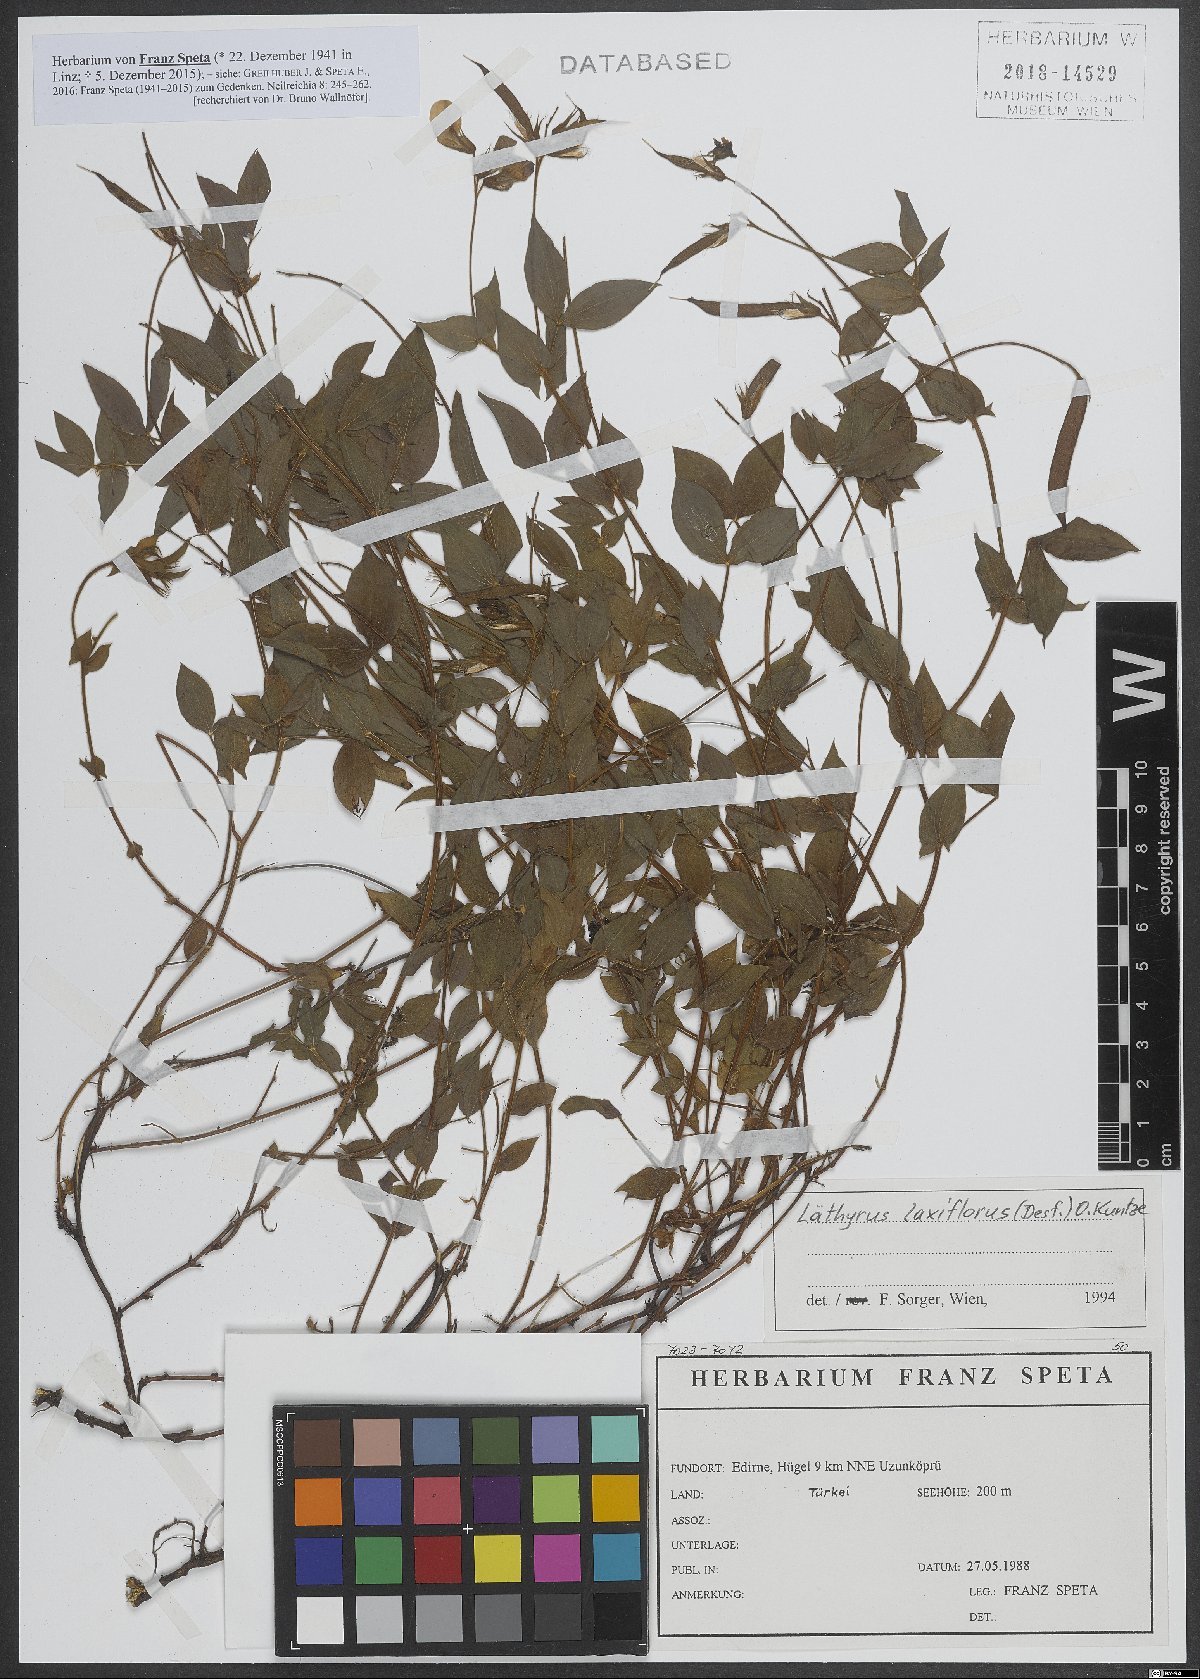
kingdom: Plantae
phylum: Tracheophyta
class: Magnoliopsida
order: Fabales
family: Fabaceae
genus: Lathyrus
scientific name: Lathyrus laxiflorus
